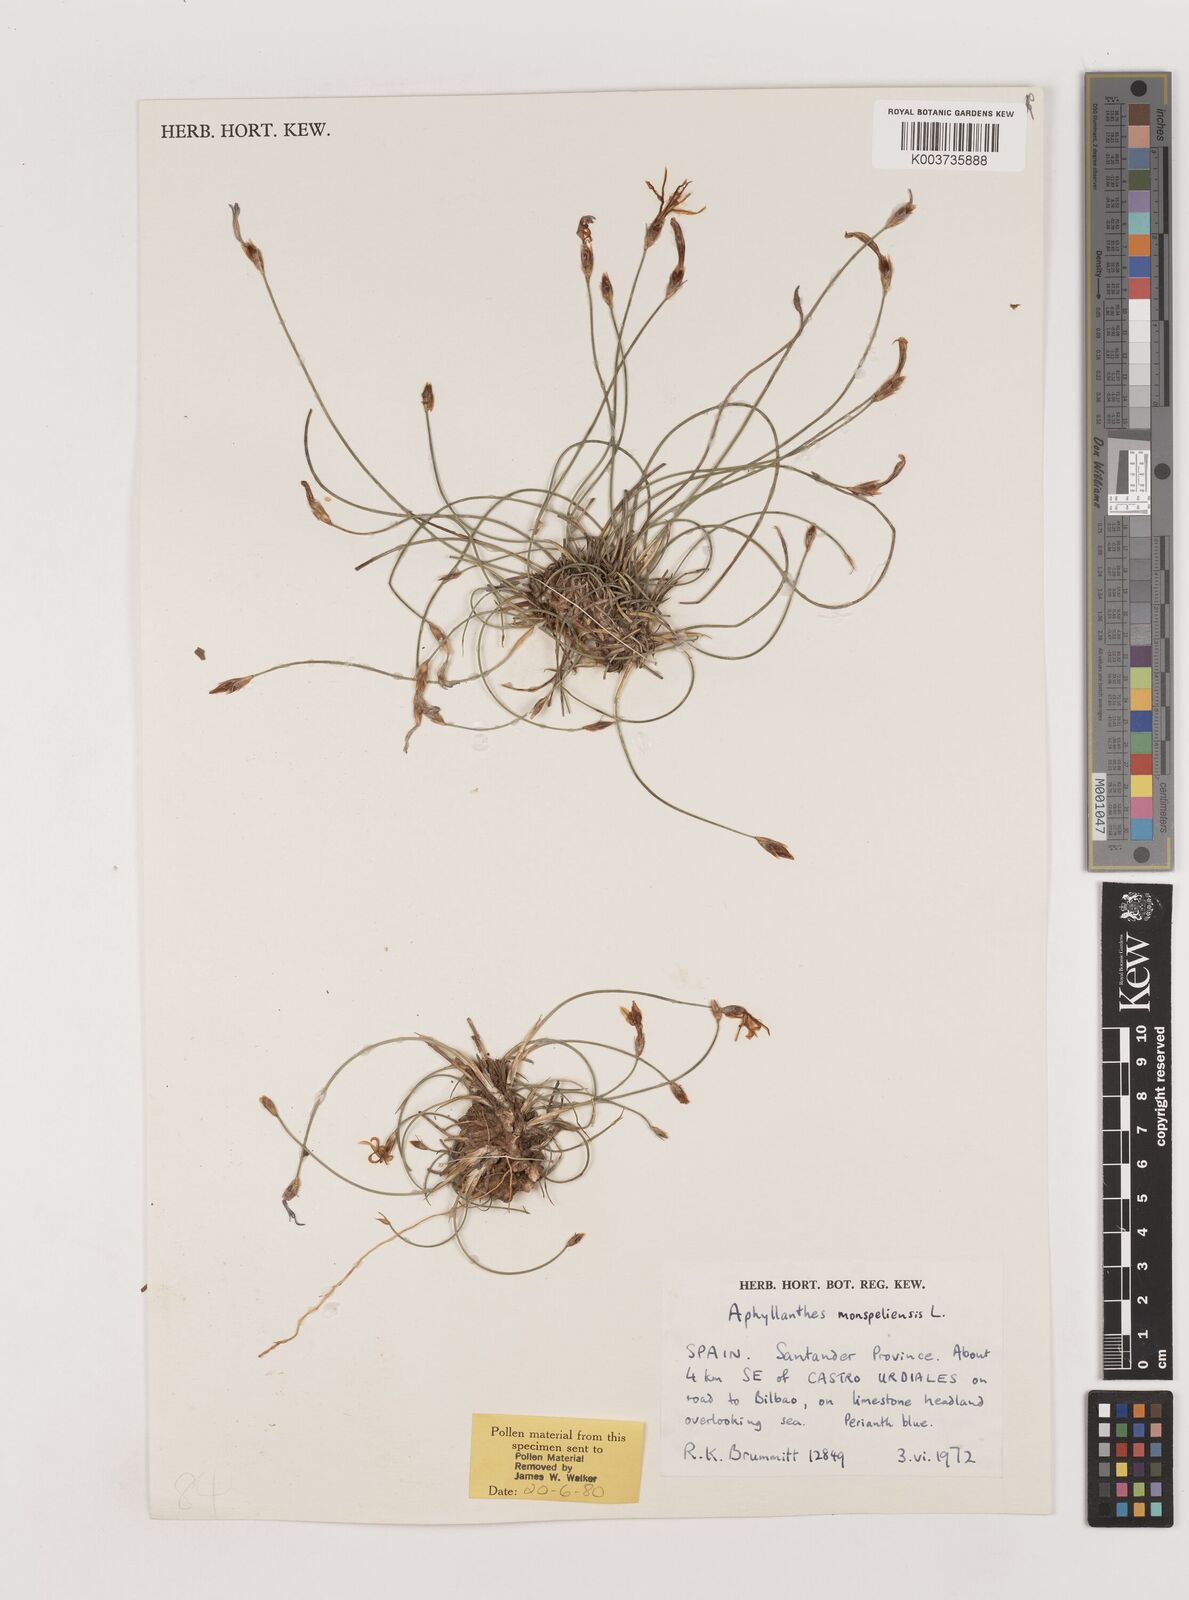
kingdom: Plantae
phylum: Tracheophyta
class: Liliopsida
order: Asparagales
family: Asparagaceae
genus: Aphyllanthes
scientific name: Aphyllanthes monspeliensis
